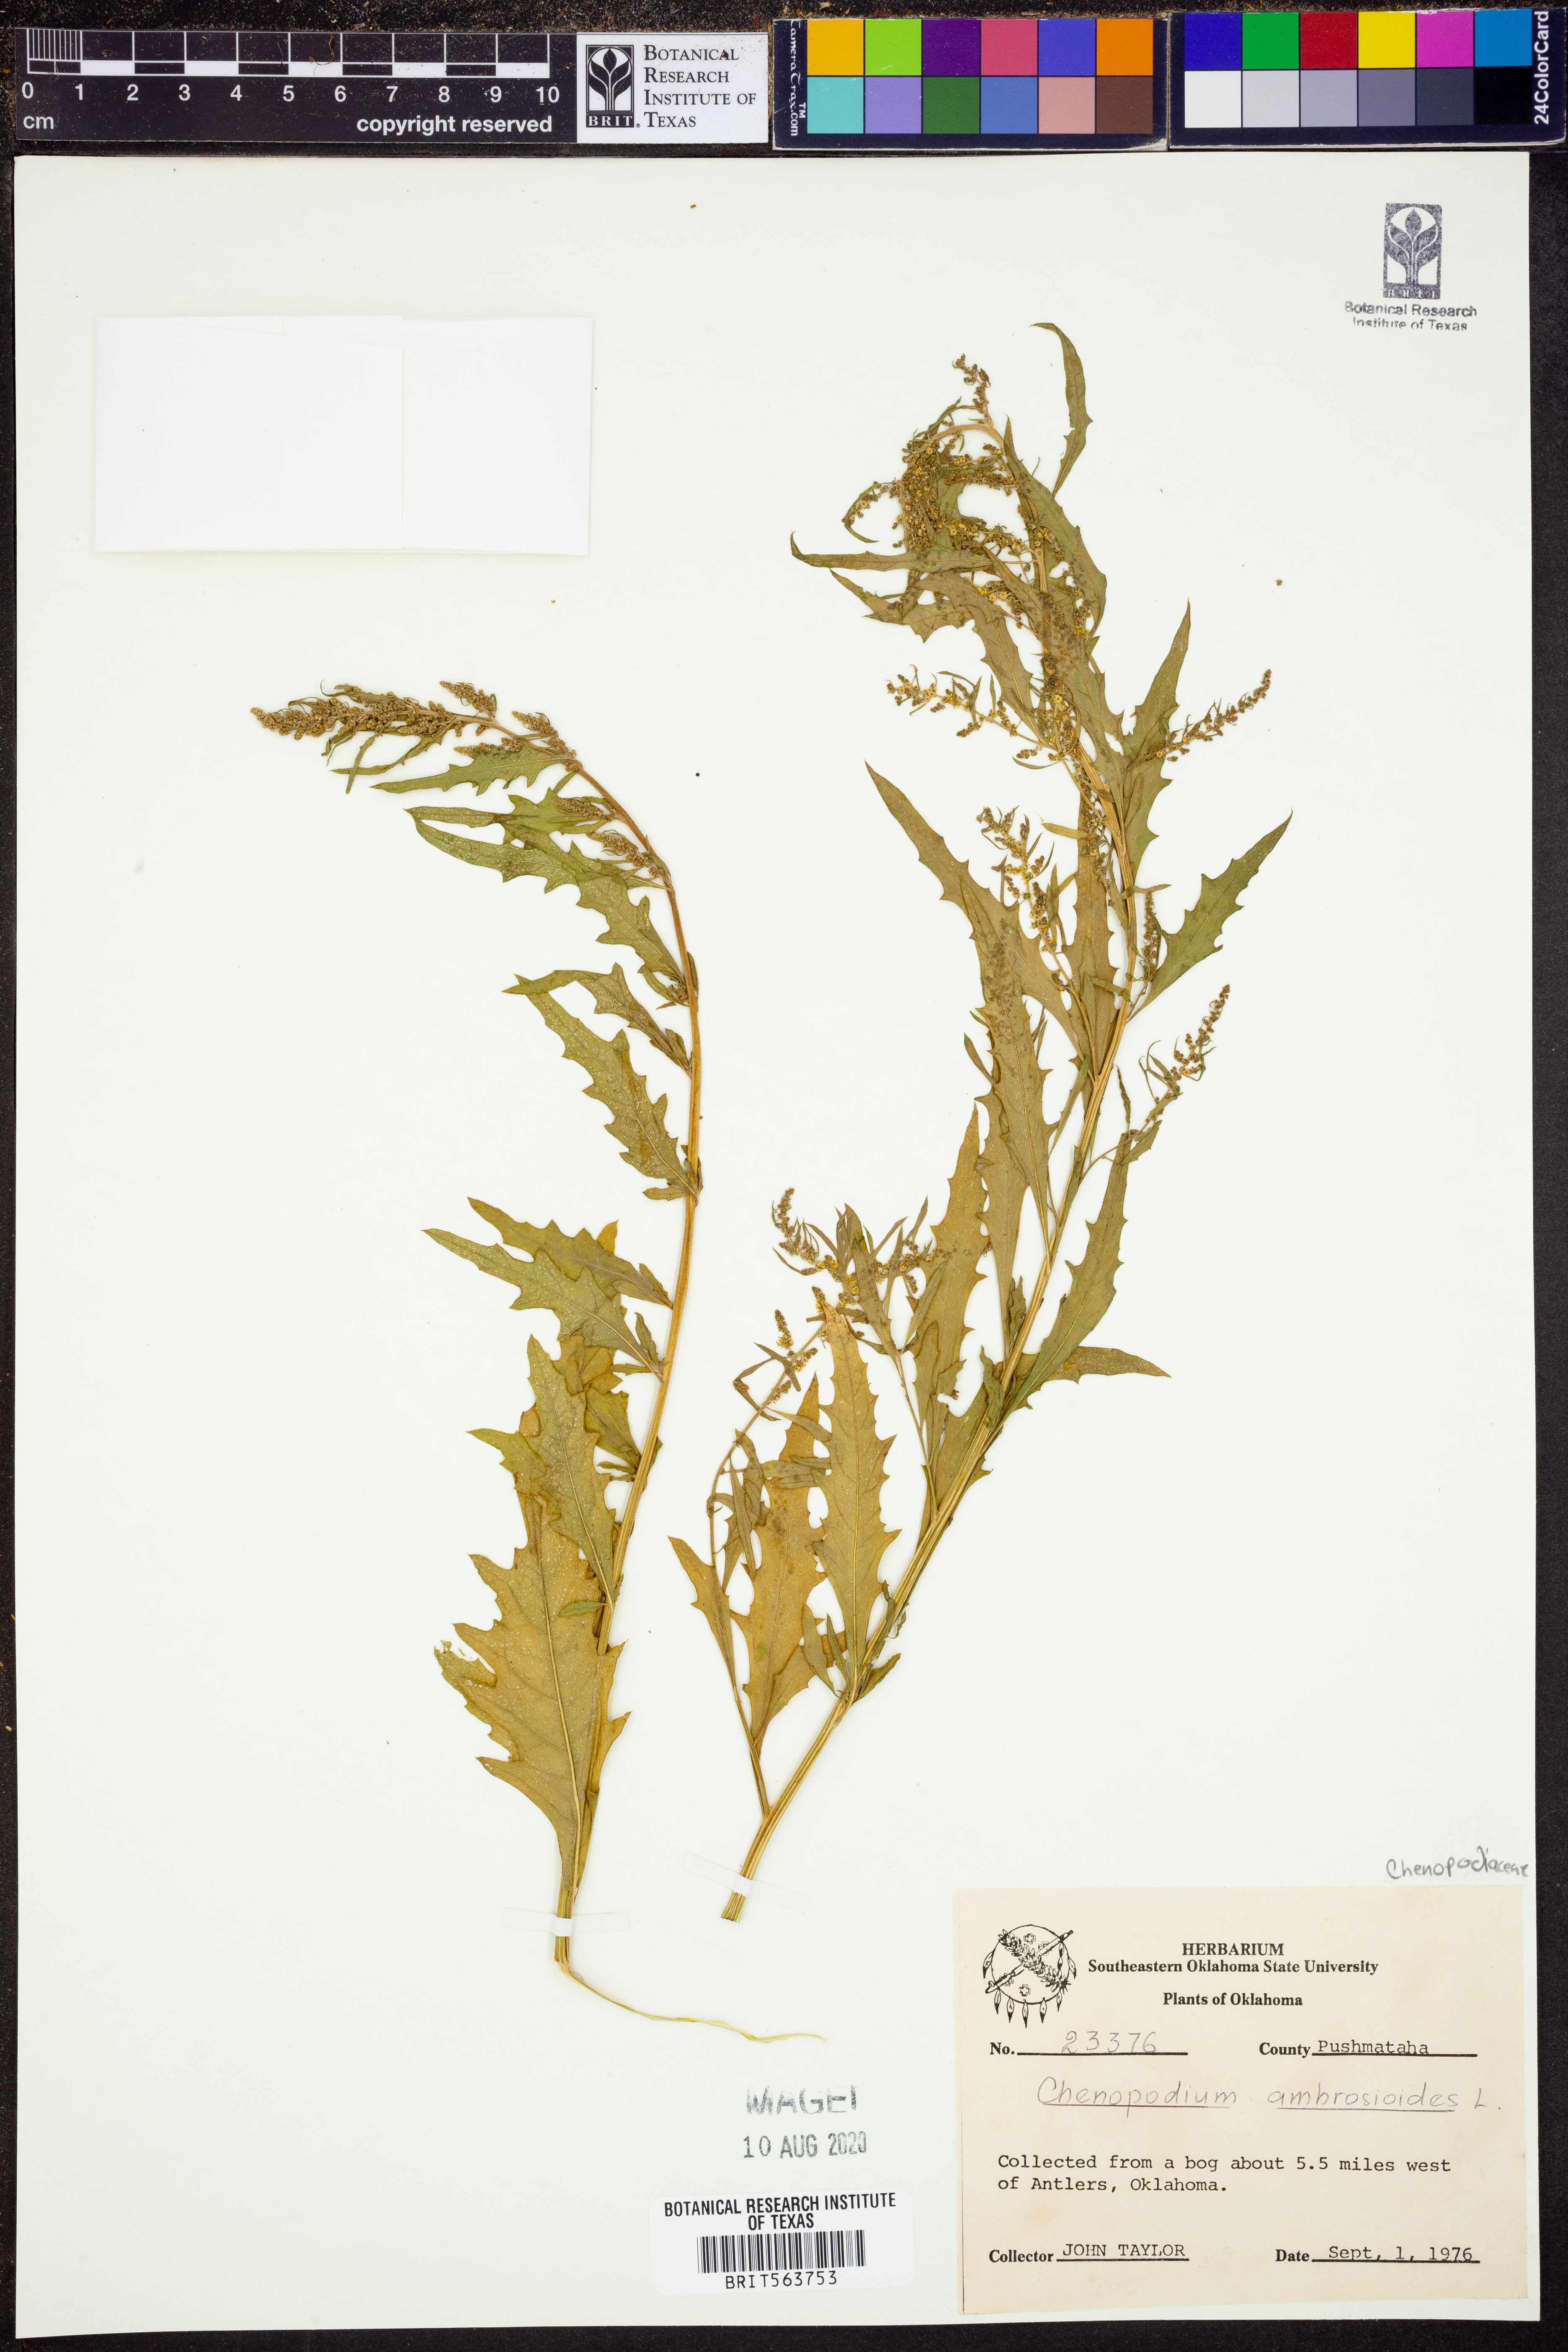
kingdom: Plantae
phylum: Tracheophyta
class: Magnoliopsida
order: Caryophyllales
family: Amaranthaceae
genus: Dysphania
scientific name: Dysphania ambrosioides
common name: Wormseed
